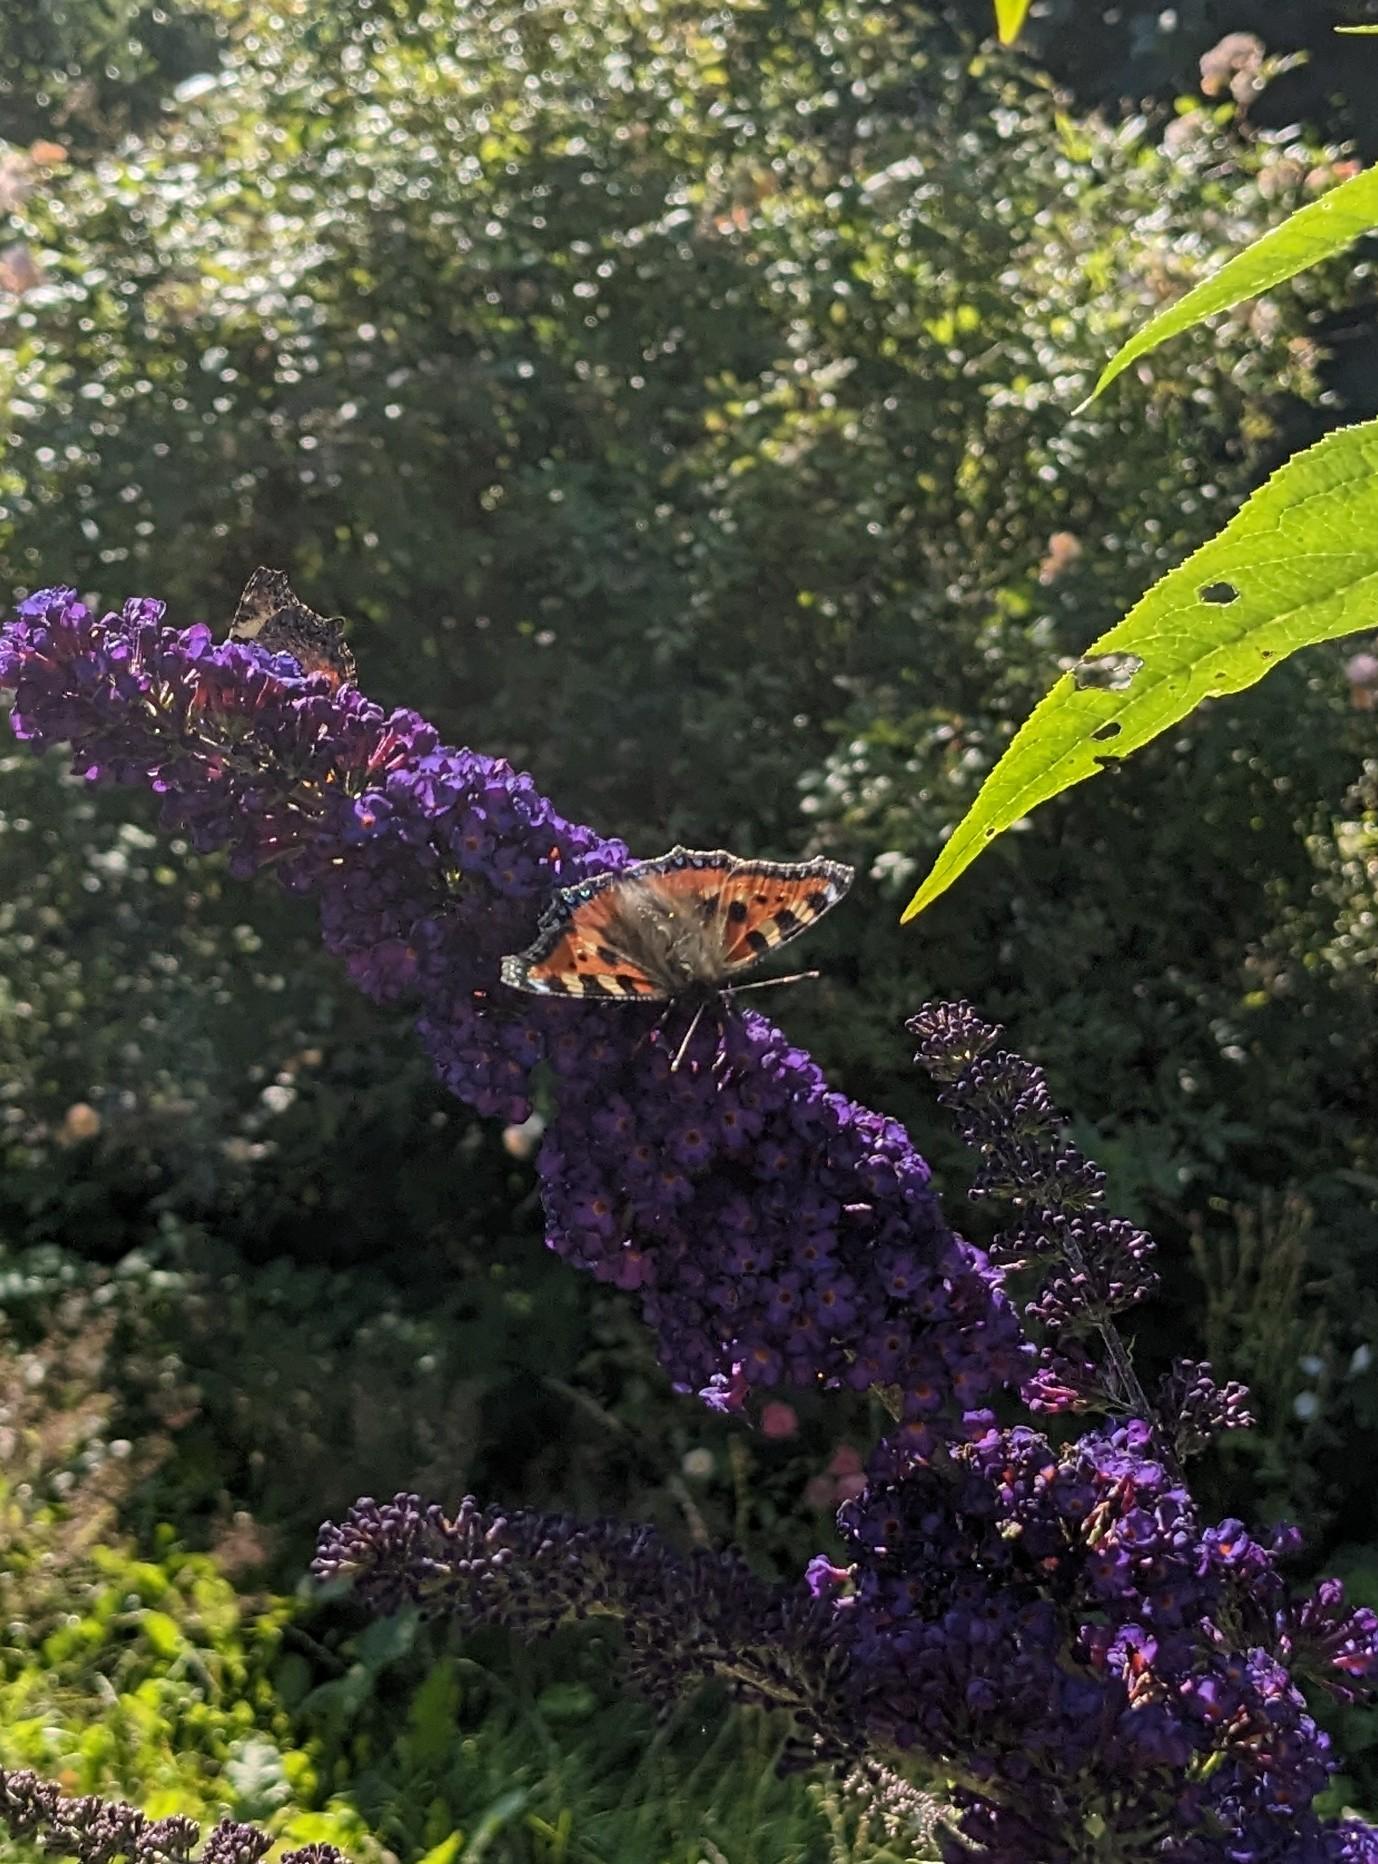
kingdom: Animalia
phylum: Arthropoda
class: Insecta
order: Lepidoptera
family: Nymphalidae
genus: Aglais
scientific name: Aglais urticae
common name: Nældens takvinge
